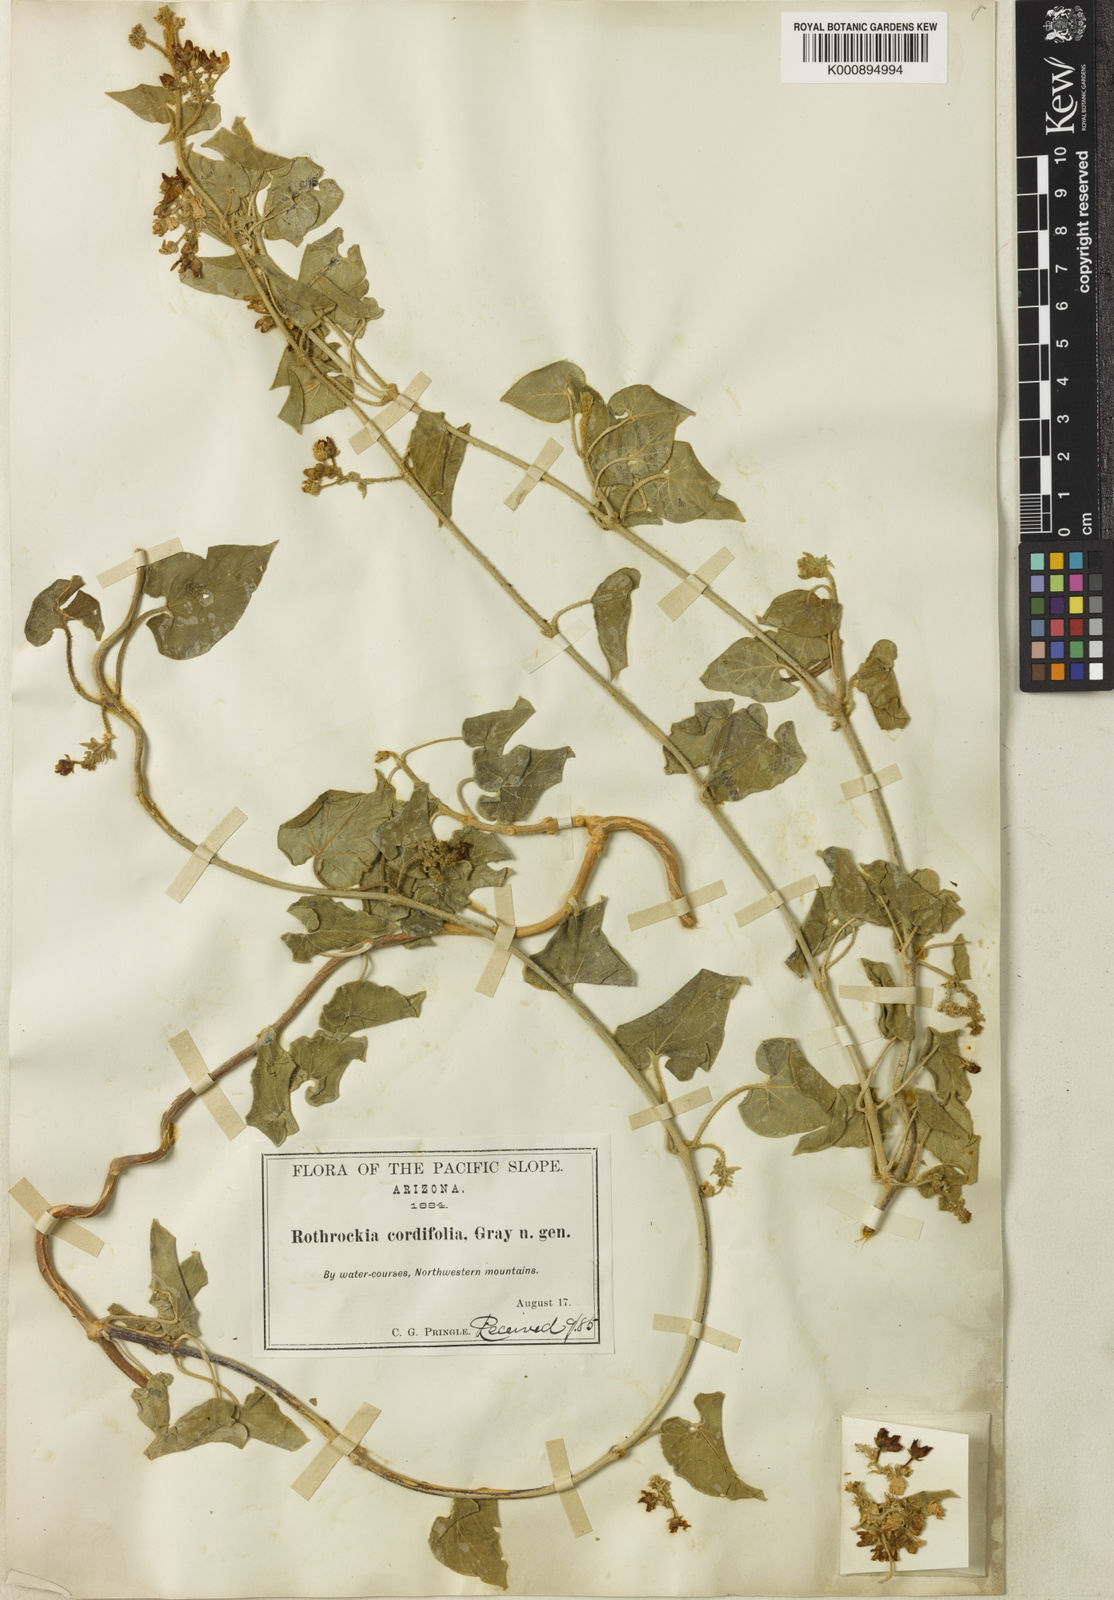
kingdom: Plantae
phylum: Tracheophyta
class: Magnoliopsida
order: Gentianales
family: Apocynaceae
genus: Polystemma
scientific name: Polystemma cordifolium
